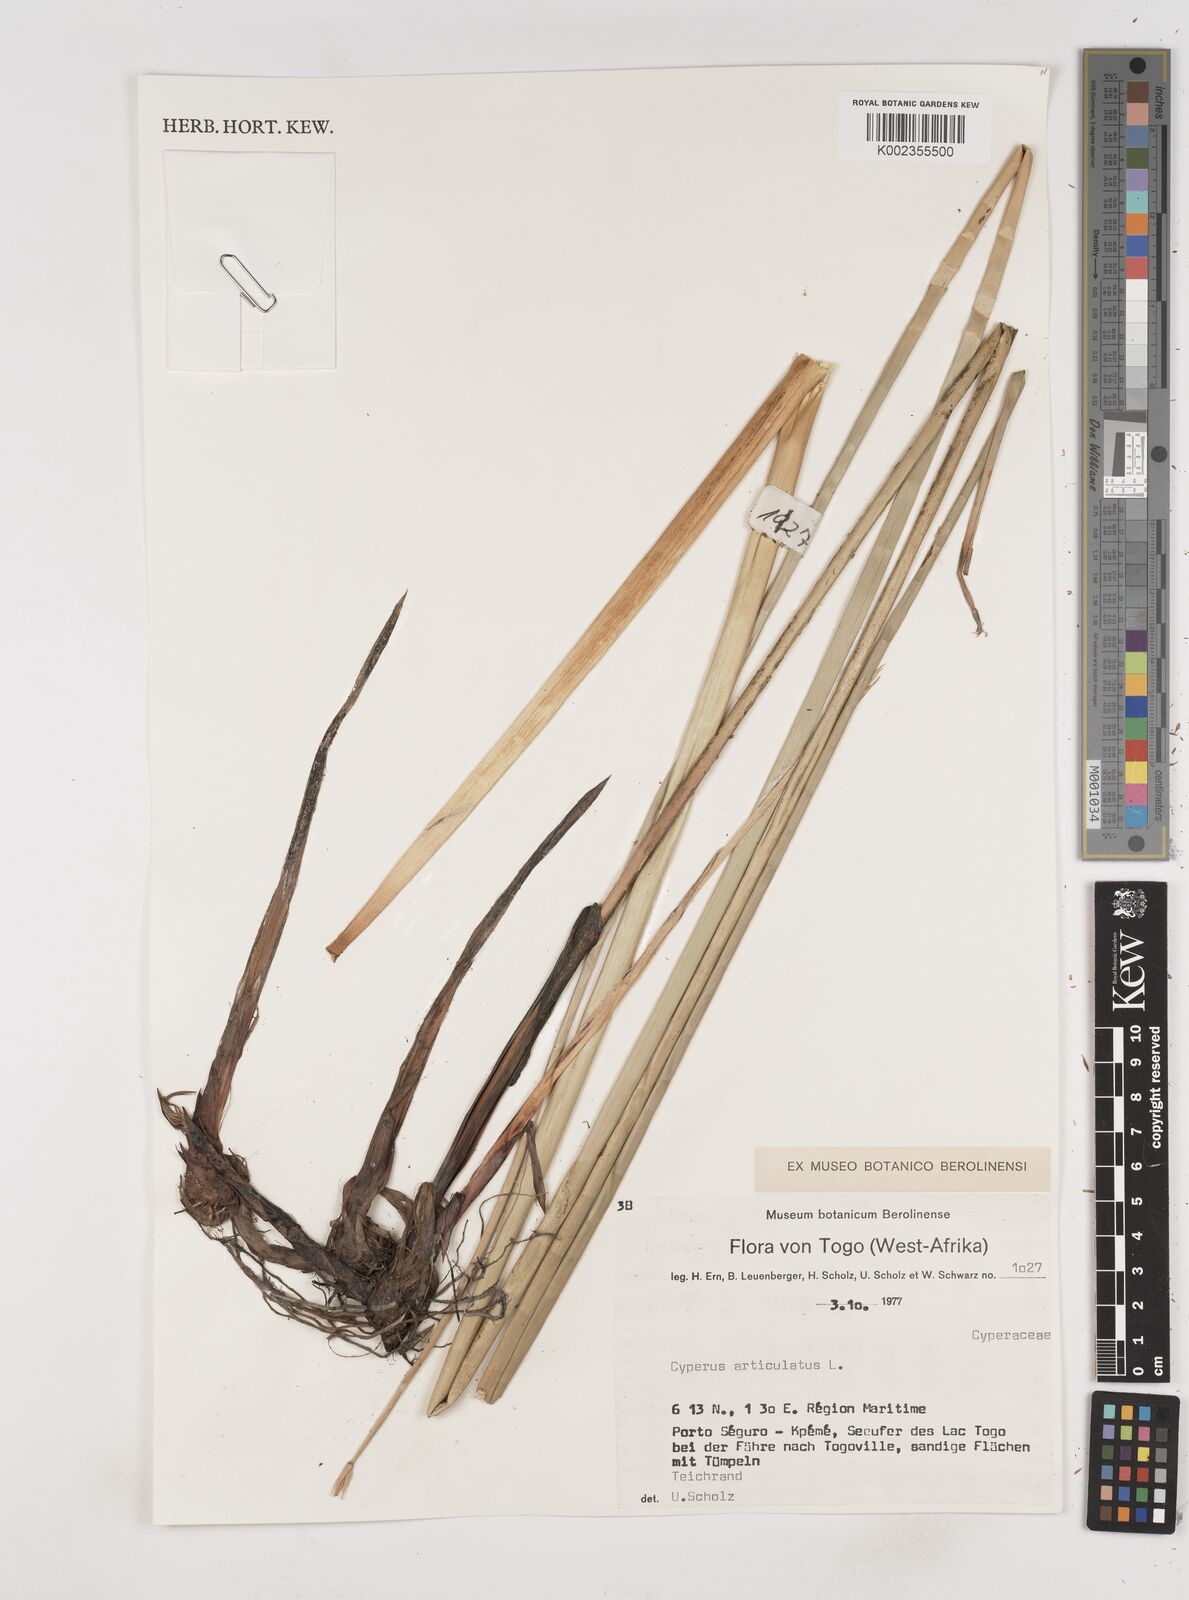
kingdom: Plantae
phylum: Tracheophyta
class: Liliopsida
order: Poales
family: Cyperaceae
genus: Cyperus
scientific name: Cyperus articulatus
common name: Jointed flatsedge
